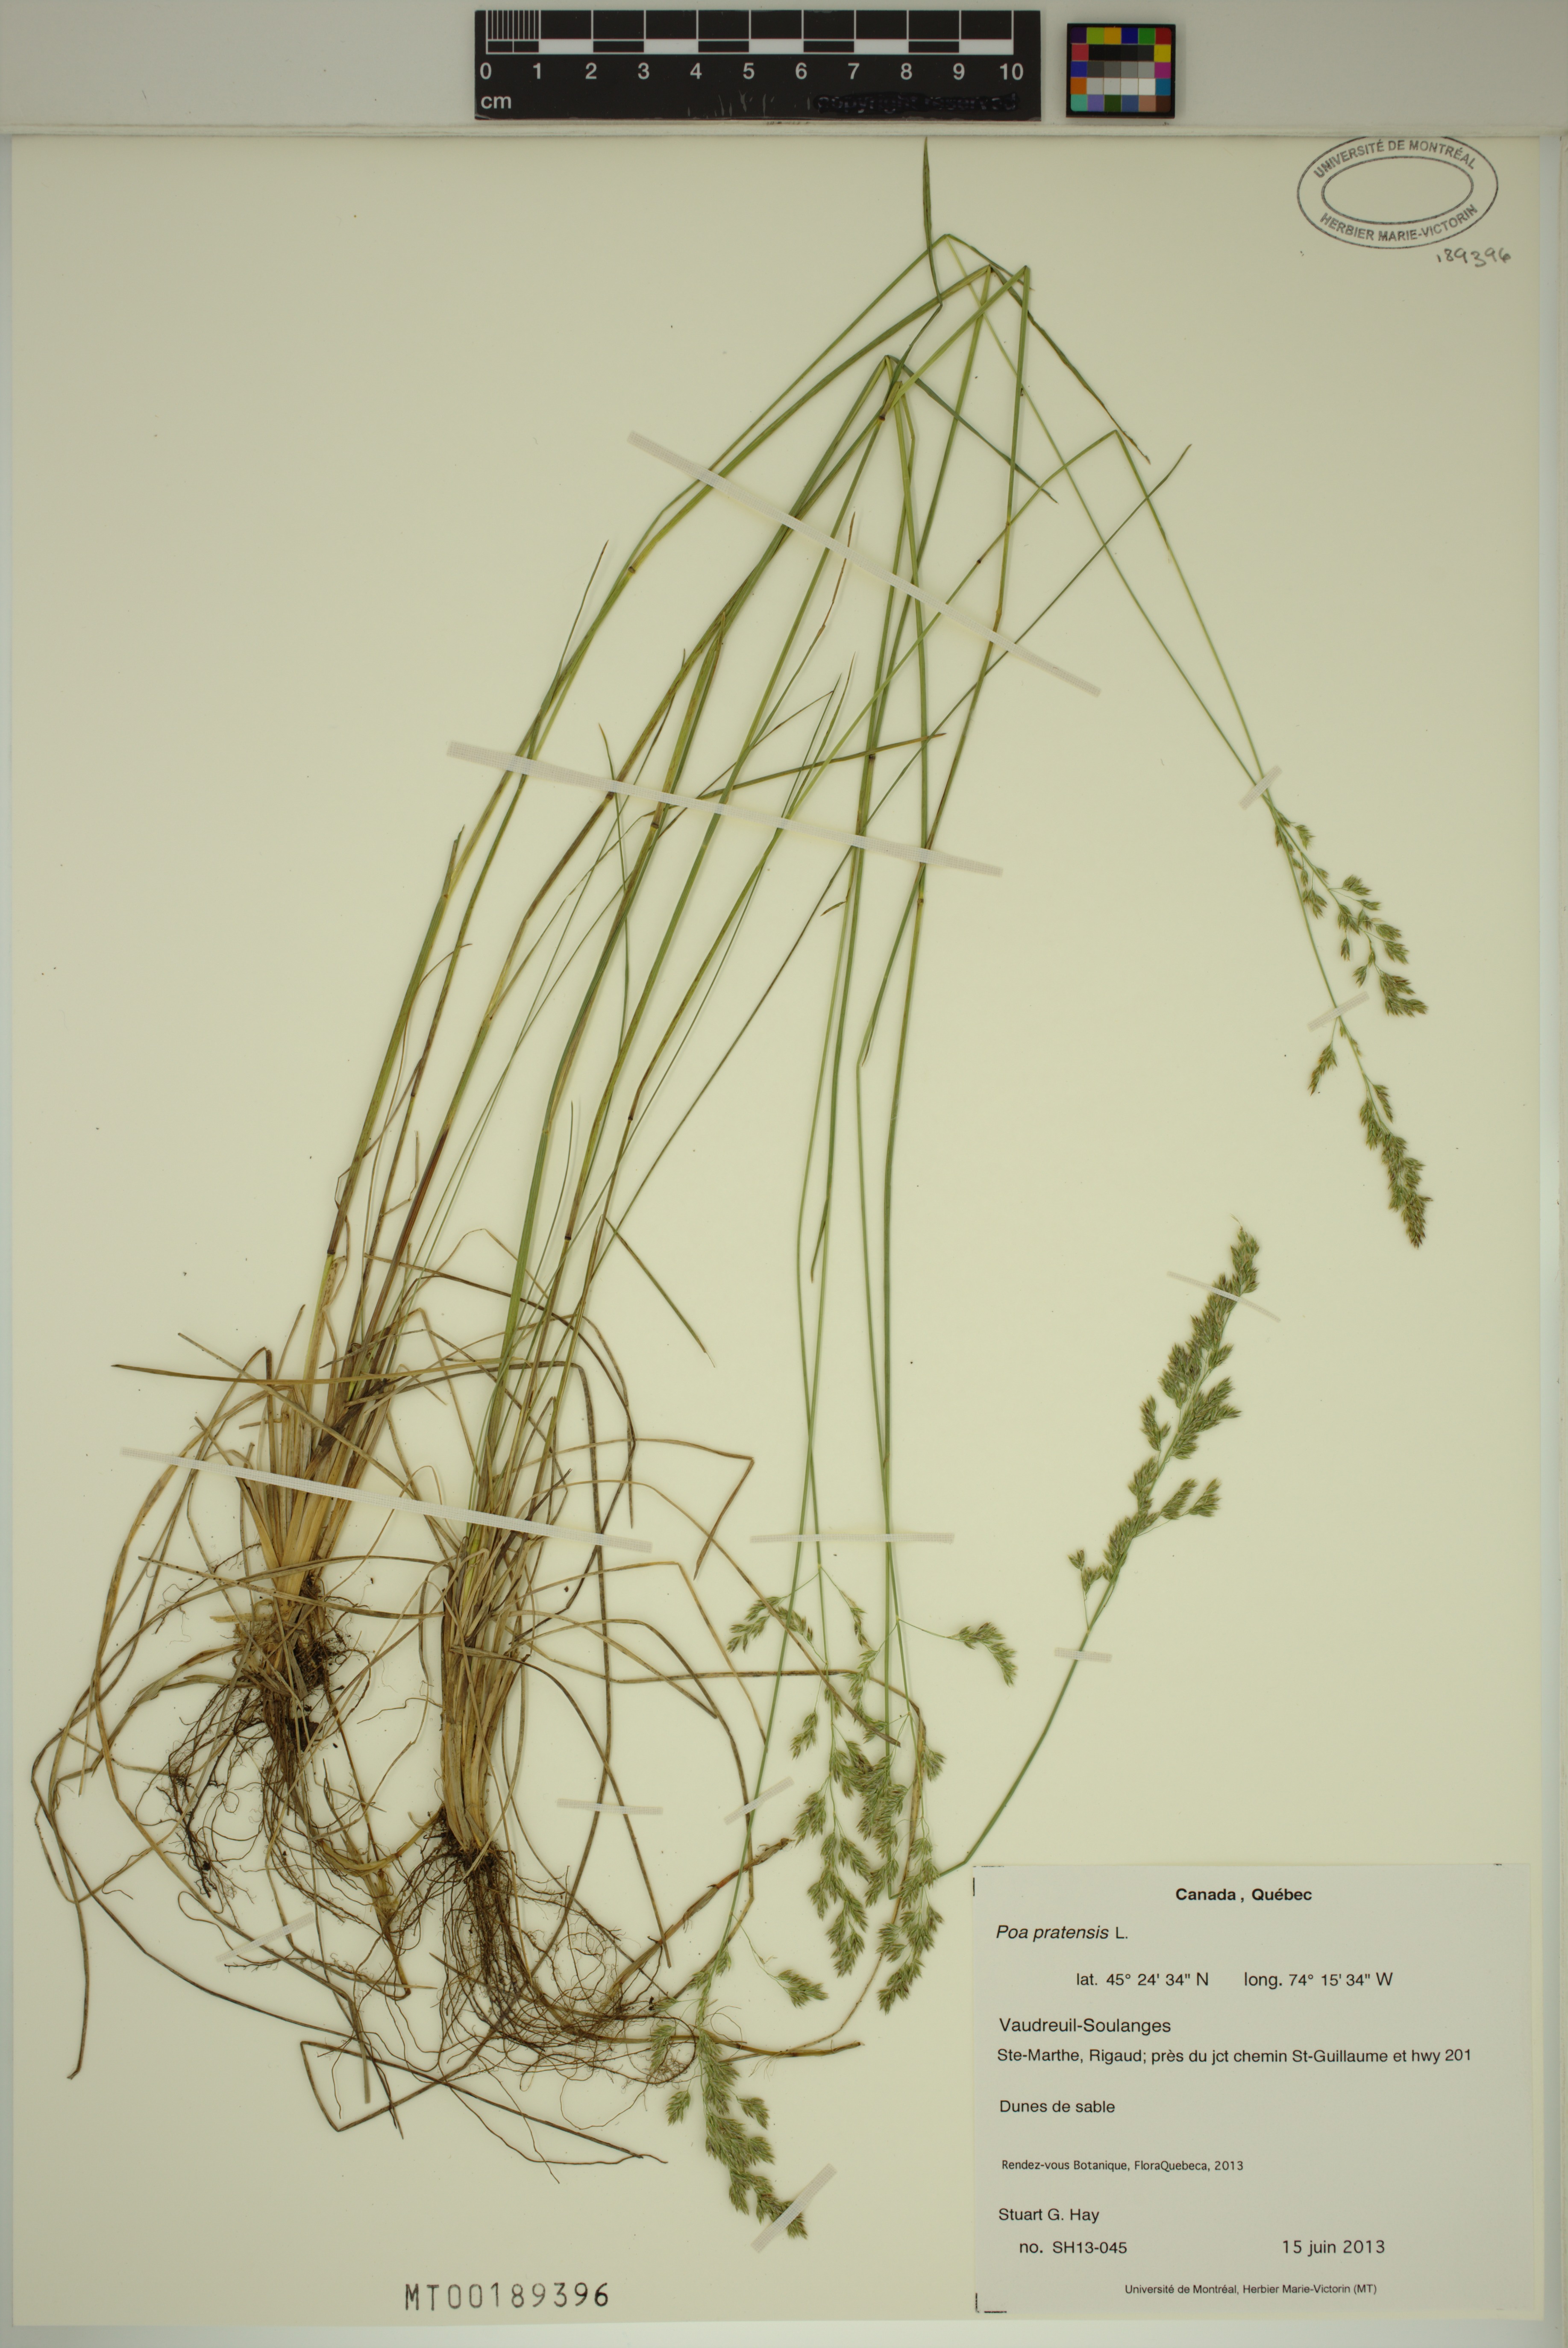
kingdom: Plantae
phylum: Tracheophyta
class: Liliopsida
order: Poales
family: Poaceae
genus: Poa
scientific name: Poa pratensis
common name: Kentucky bluegrass
